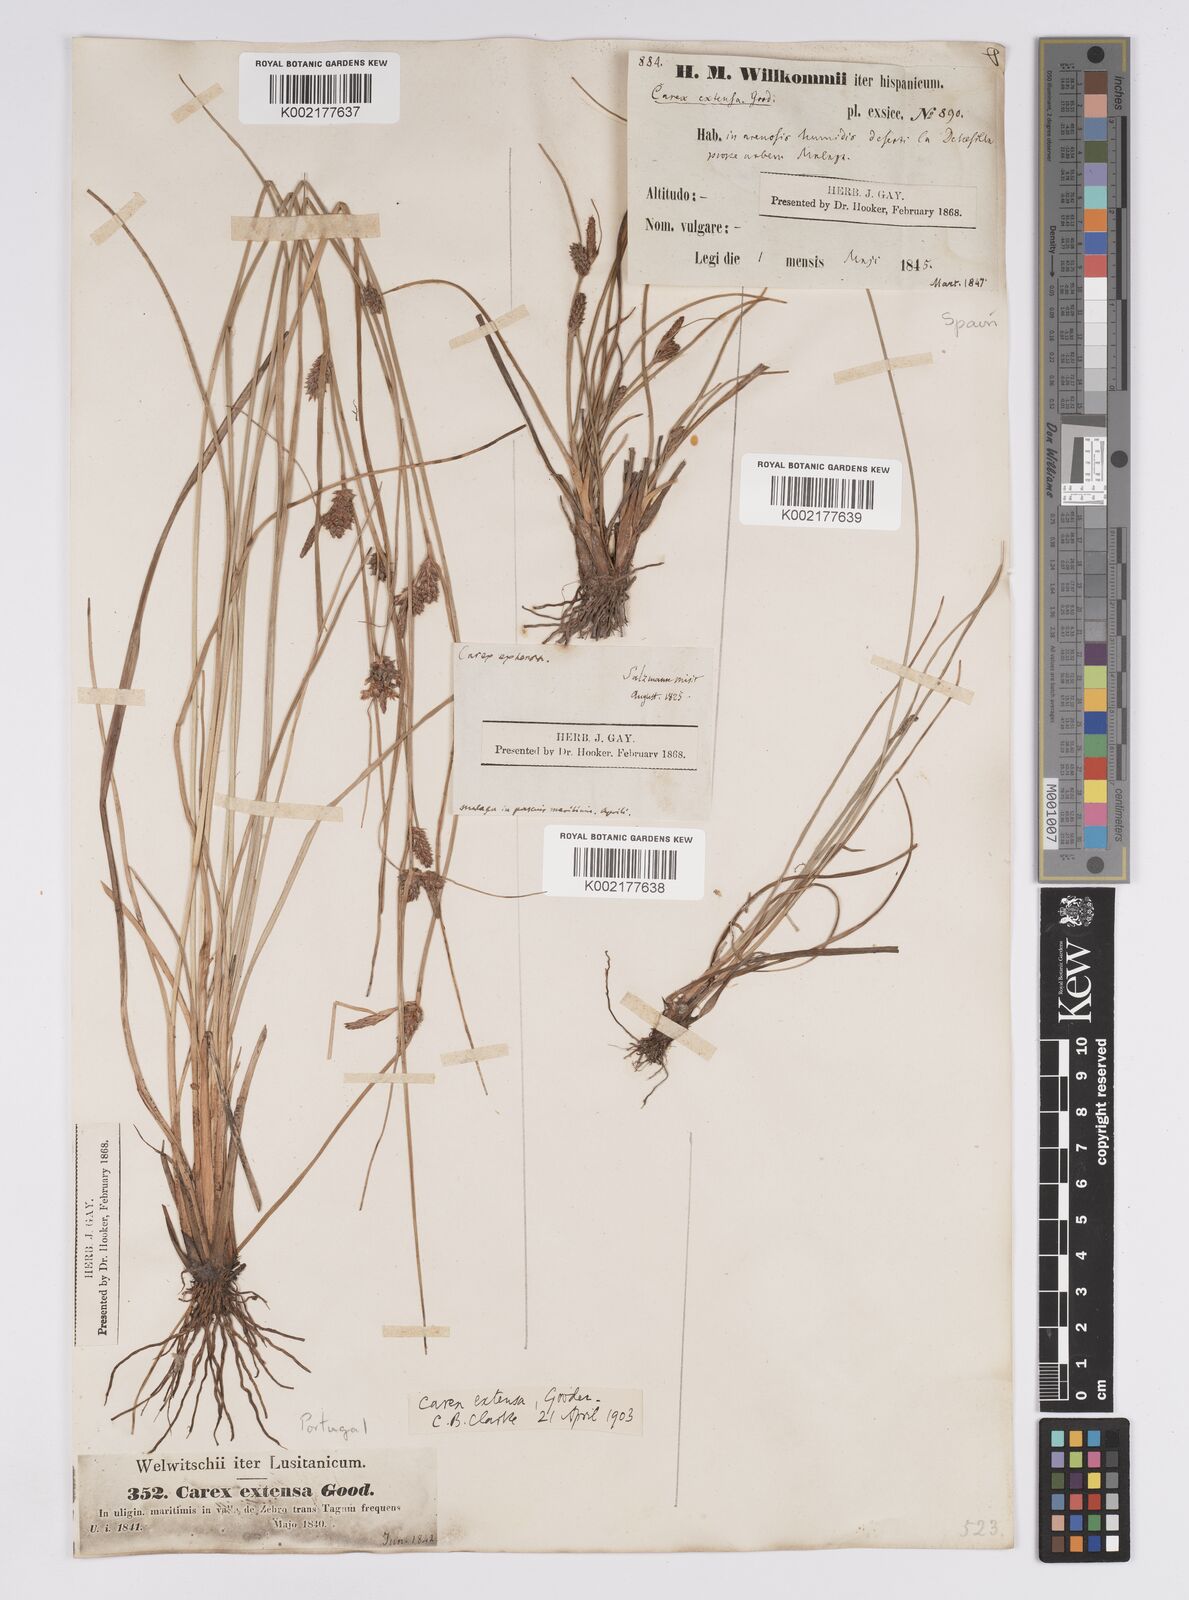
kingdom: Plantae
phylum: Tracheophyta
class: Liliopsida
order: Poales
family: Cyperaceae
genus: Carex
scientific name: Carex extensa
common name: Long-bracted sedge
